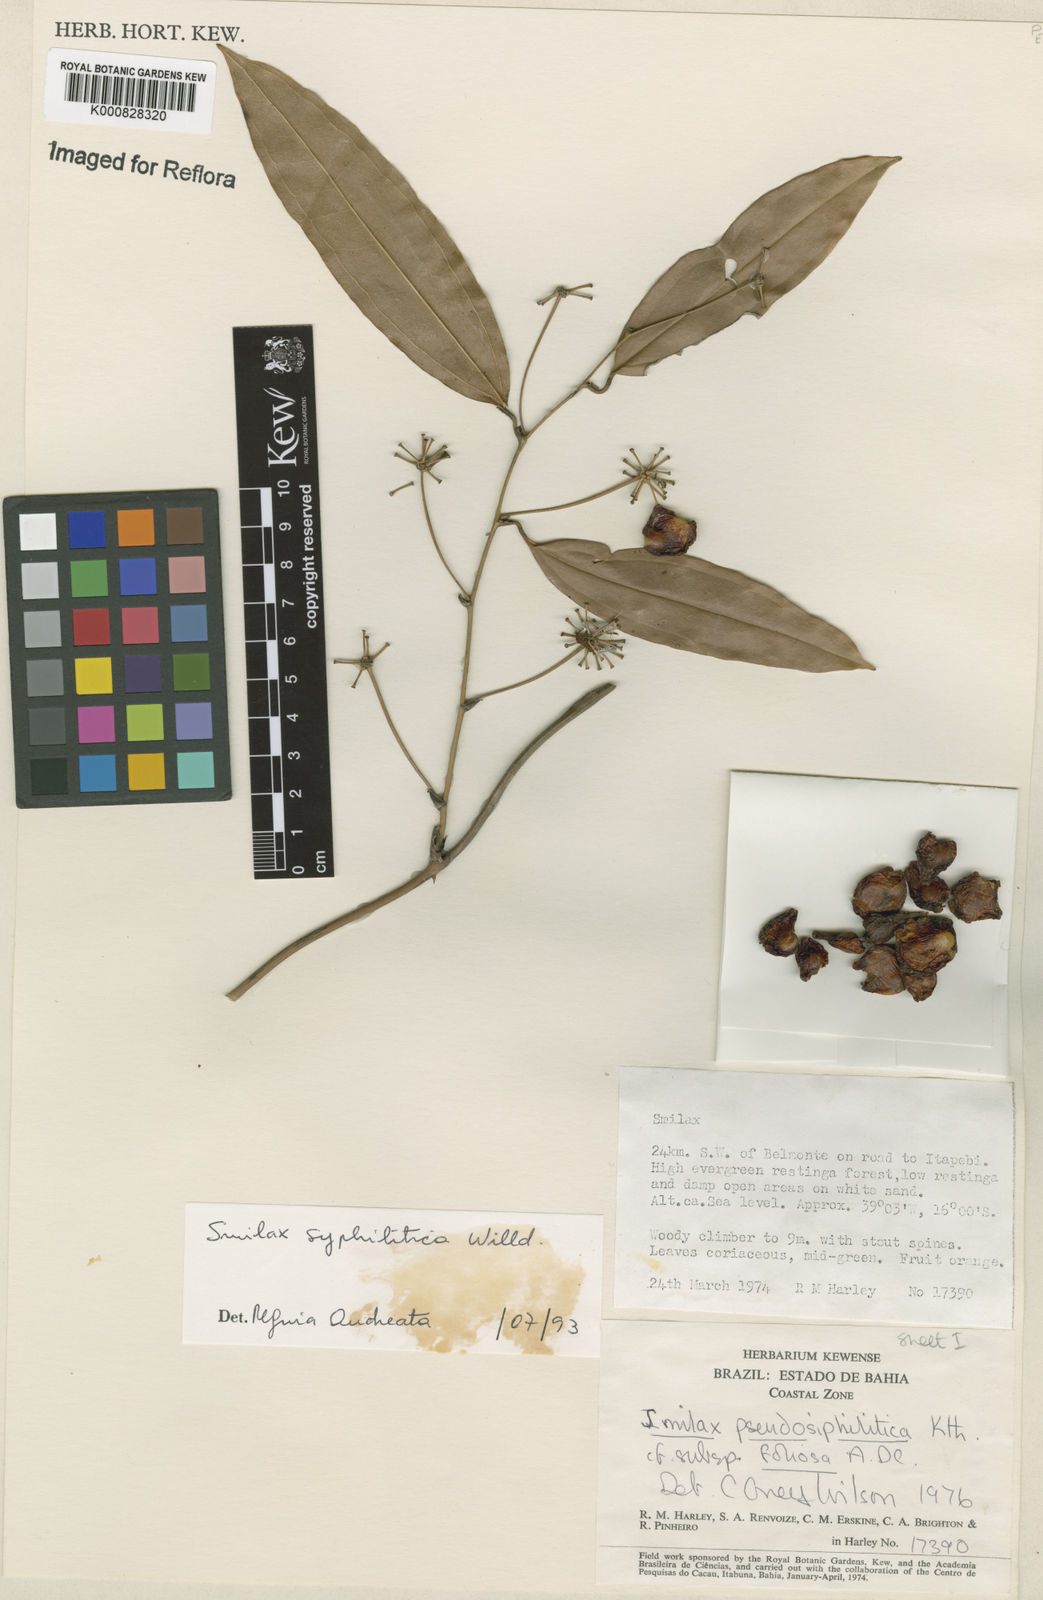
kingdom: Plantae
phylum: Tracheophyta
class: Liliopsida
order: Liliales
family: Smilacaceae
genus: Smilax
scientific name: Smilax siphilitica
